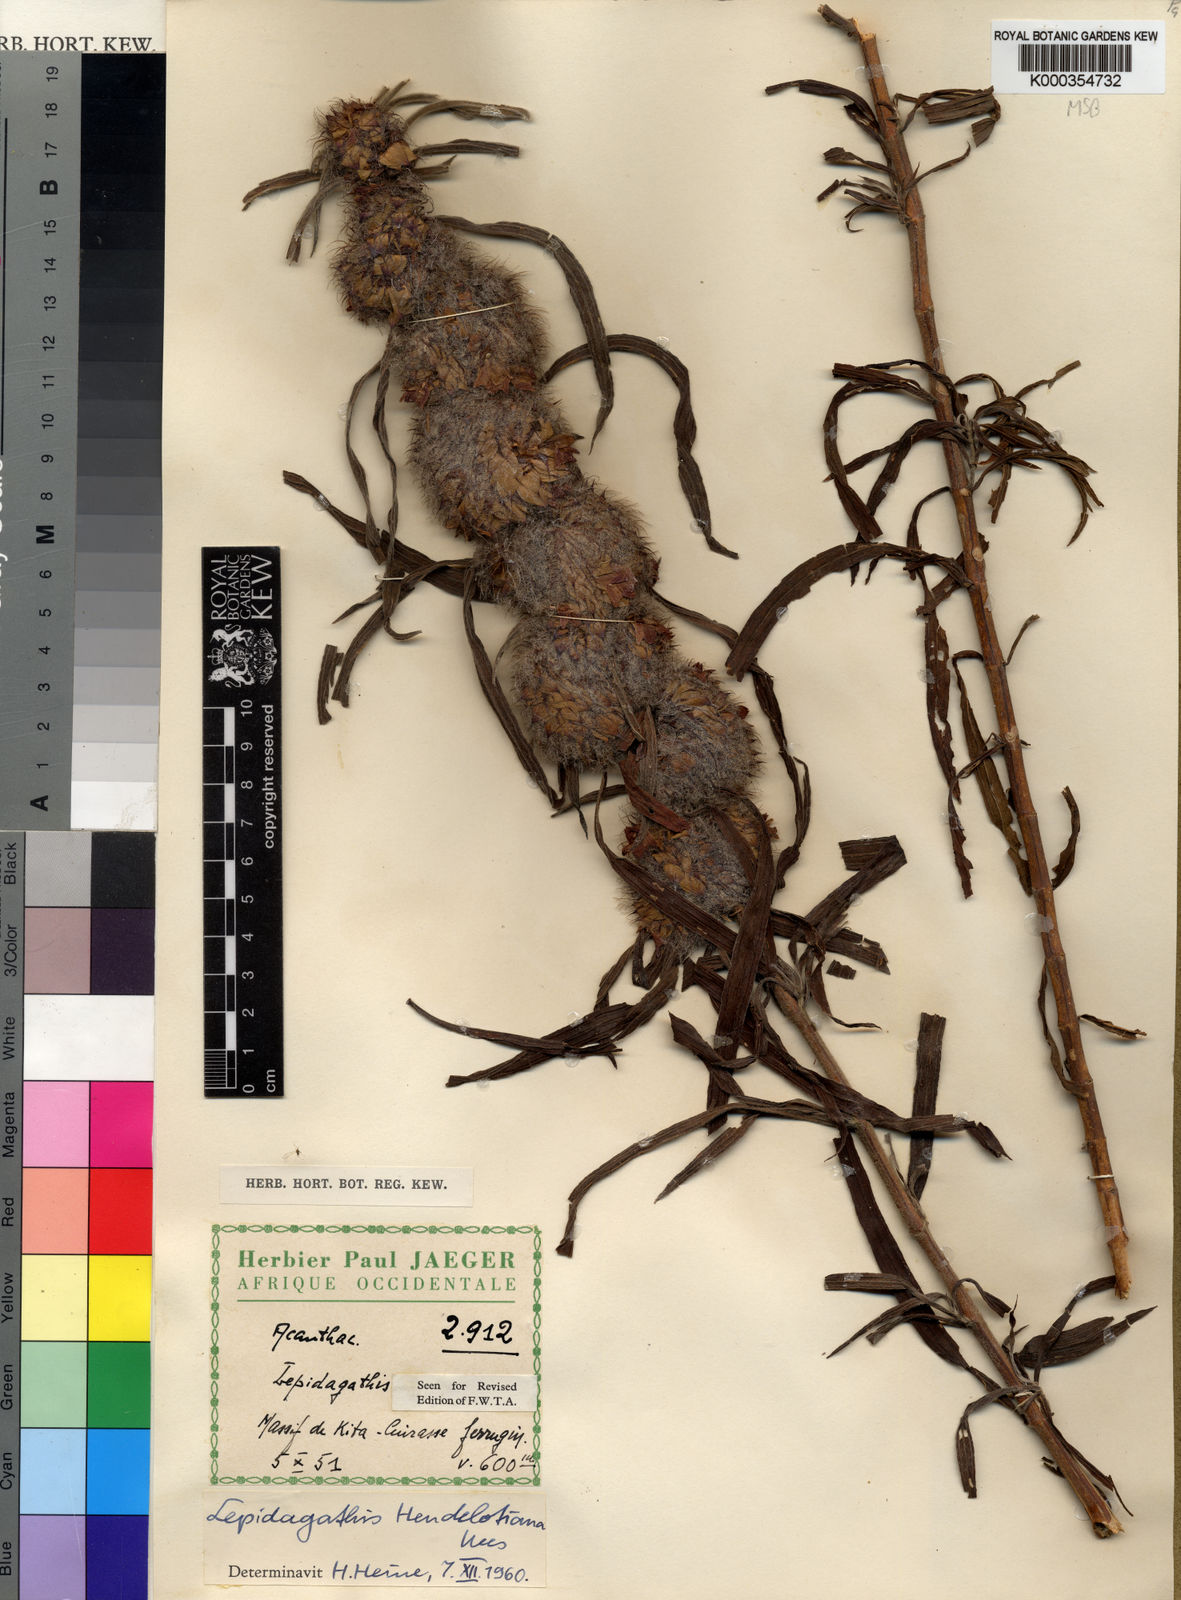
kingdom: Plantae
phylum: Tracheophyta
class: Magnoliopsida
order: Lamiales
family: Acanthaceae
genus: Lepidagathis
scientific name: Lepidagathis heudelotiana
